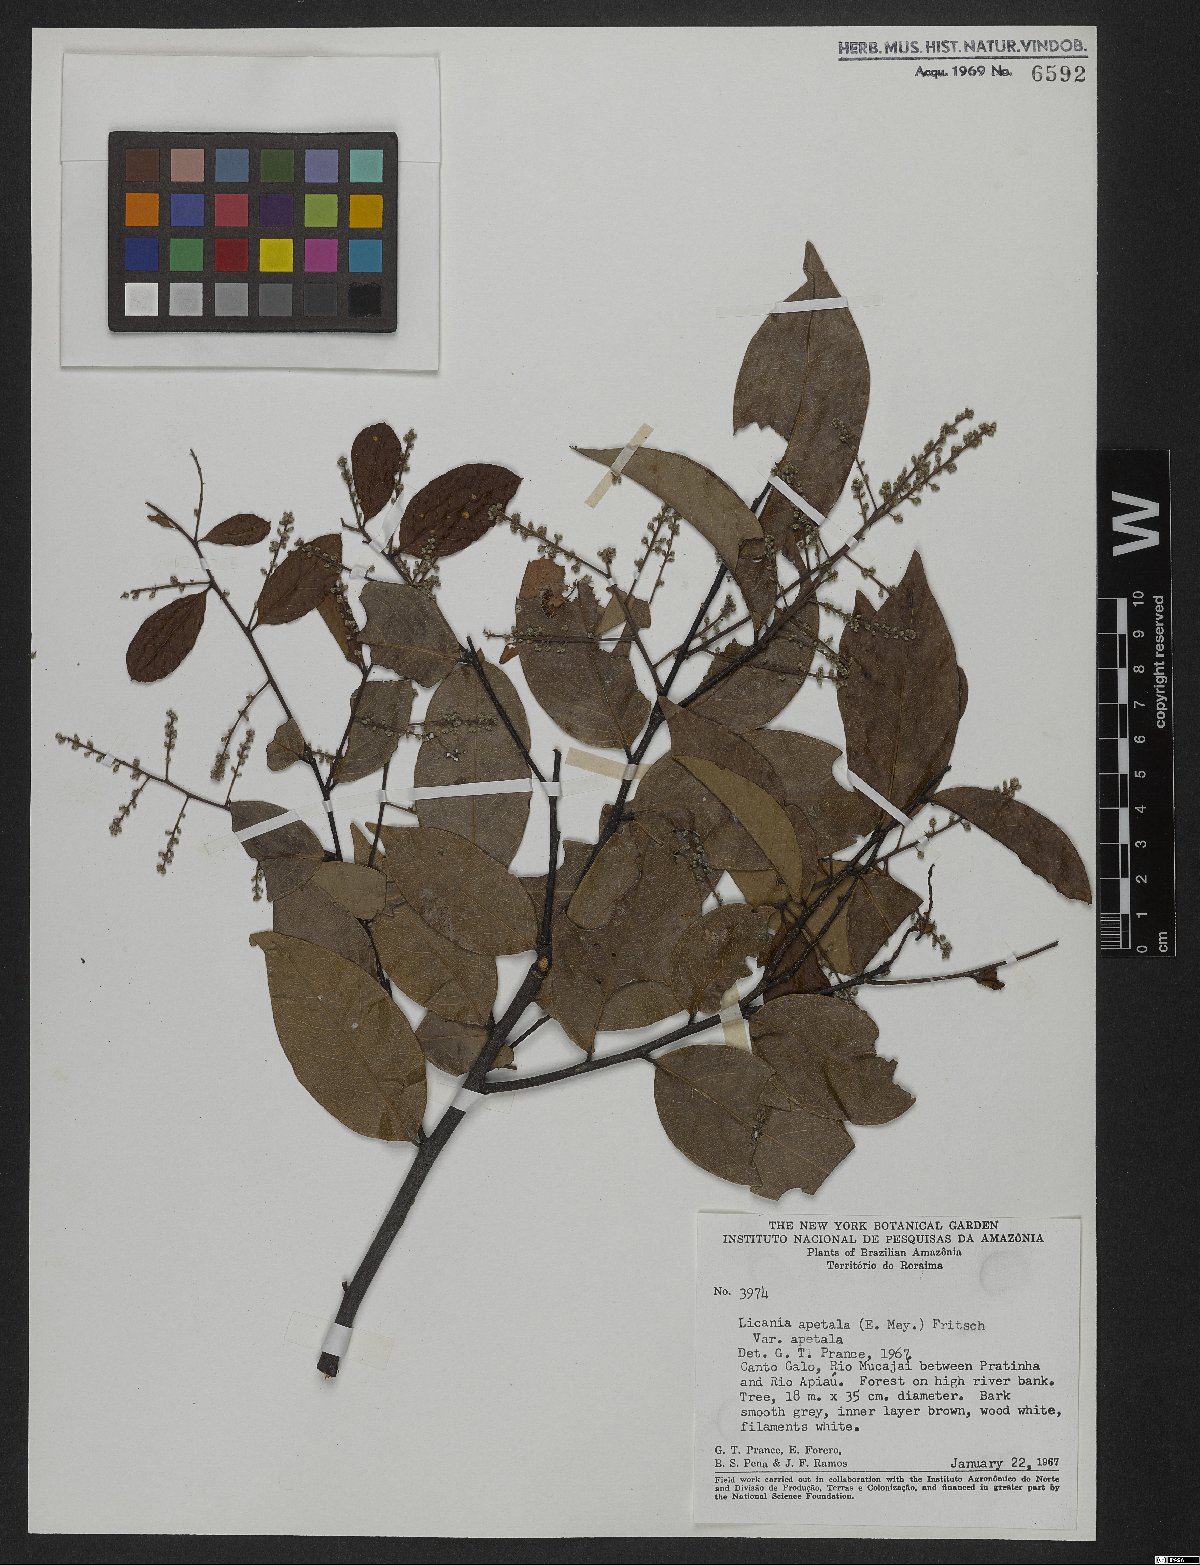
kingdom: Plantae
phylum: Tracheophyta
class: Magnoliopsida
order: Malpighiales
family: Chrysobalanaceae
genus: Leptobalanus
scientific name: Leptobalanus apetalus
